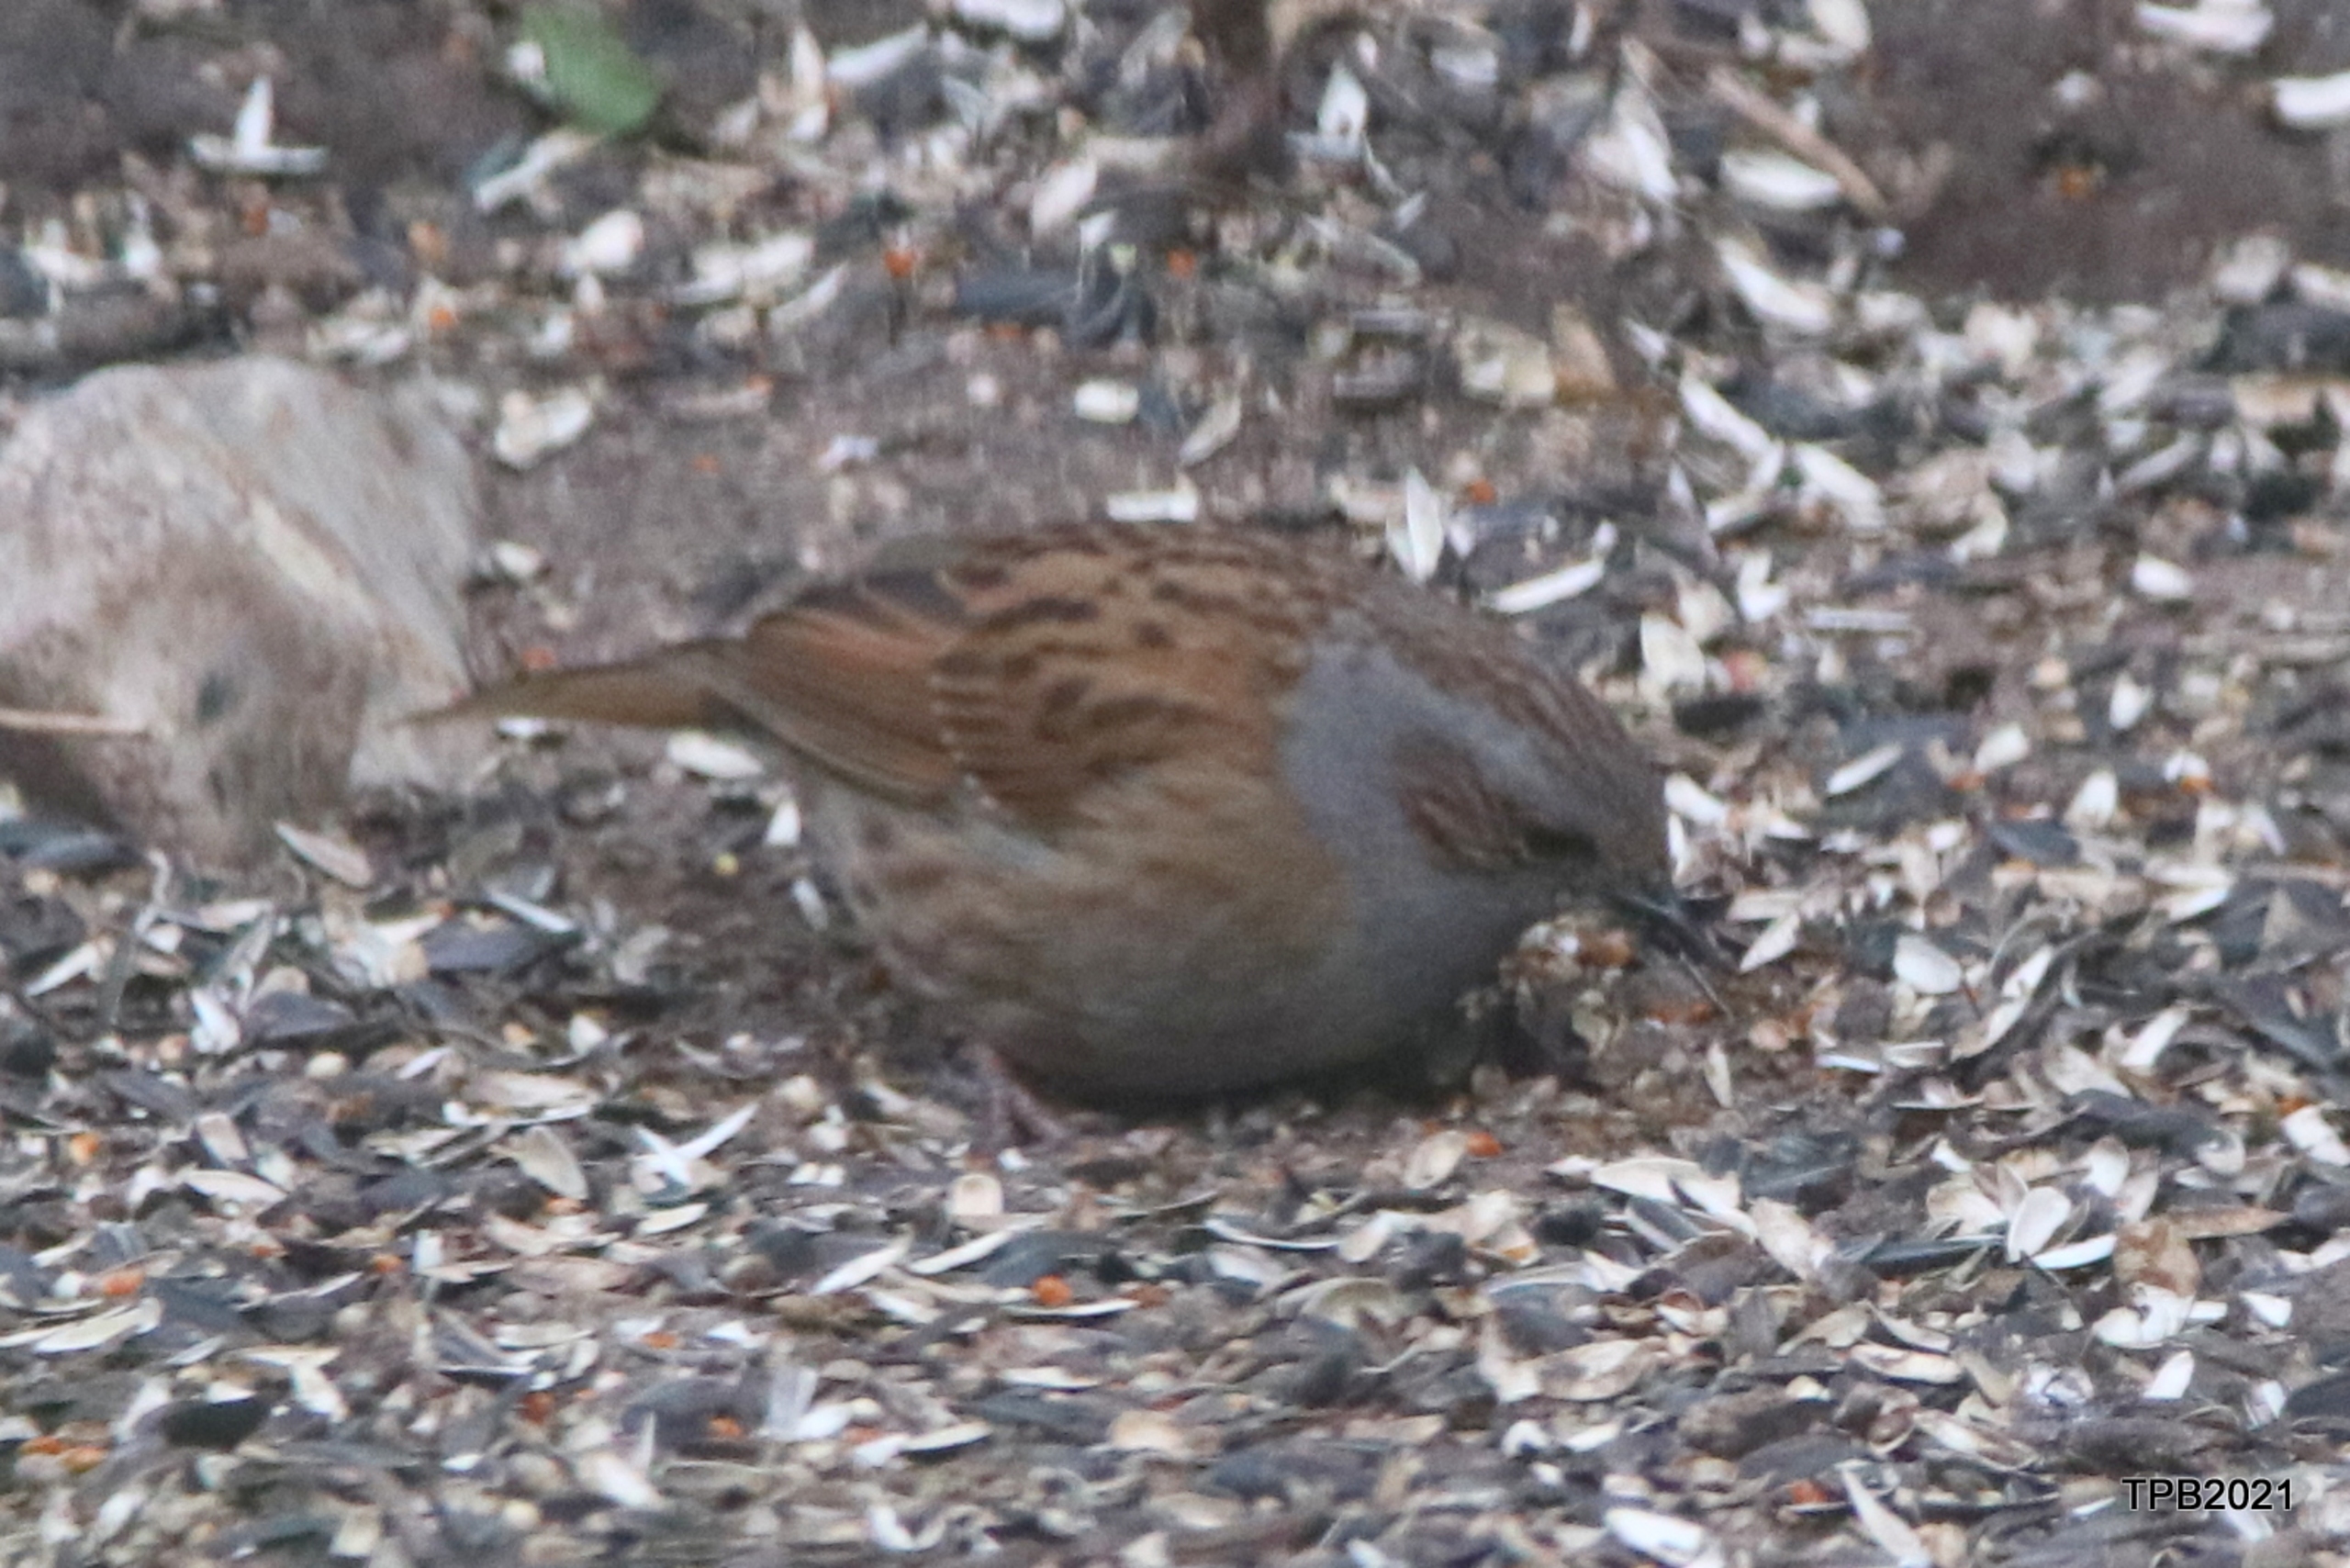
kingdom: Animalia
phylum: Chordata
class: Aves
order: Passeriformes
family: Prunellidae
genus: Prunella
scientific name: Prunella modularis
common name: Jernspurv
